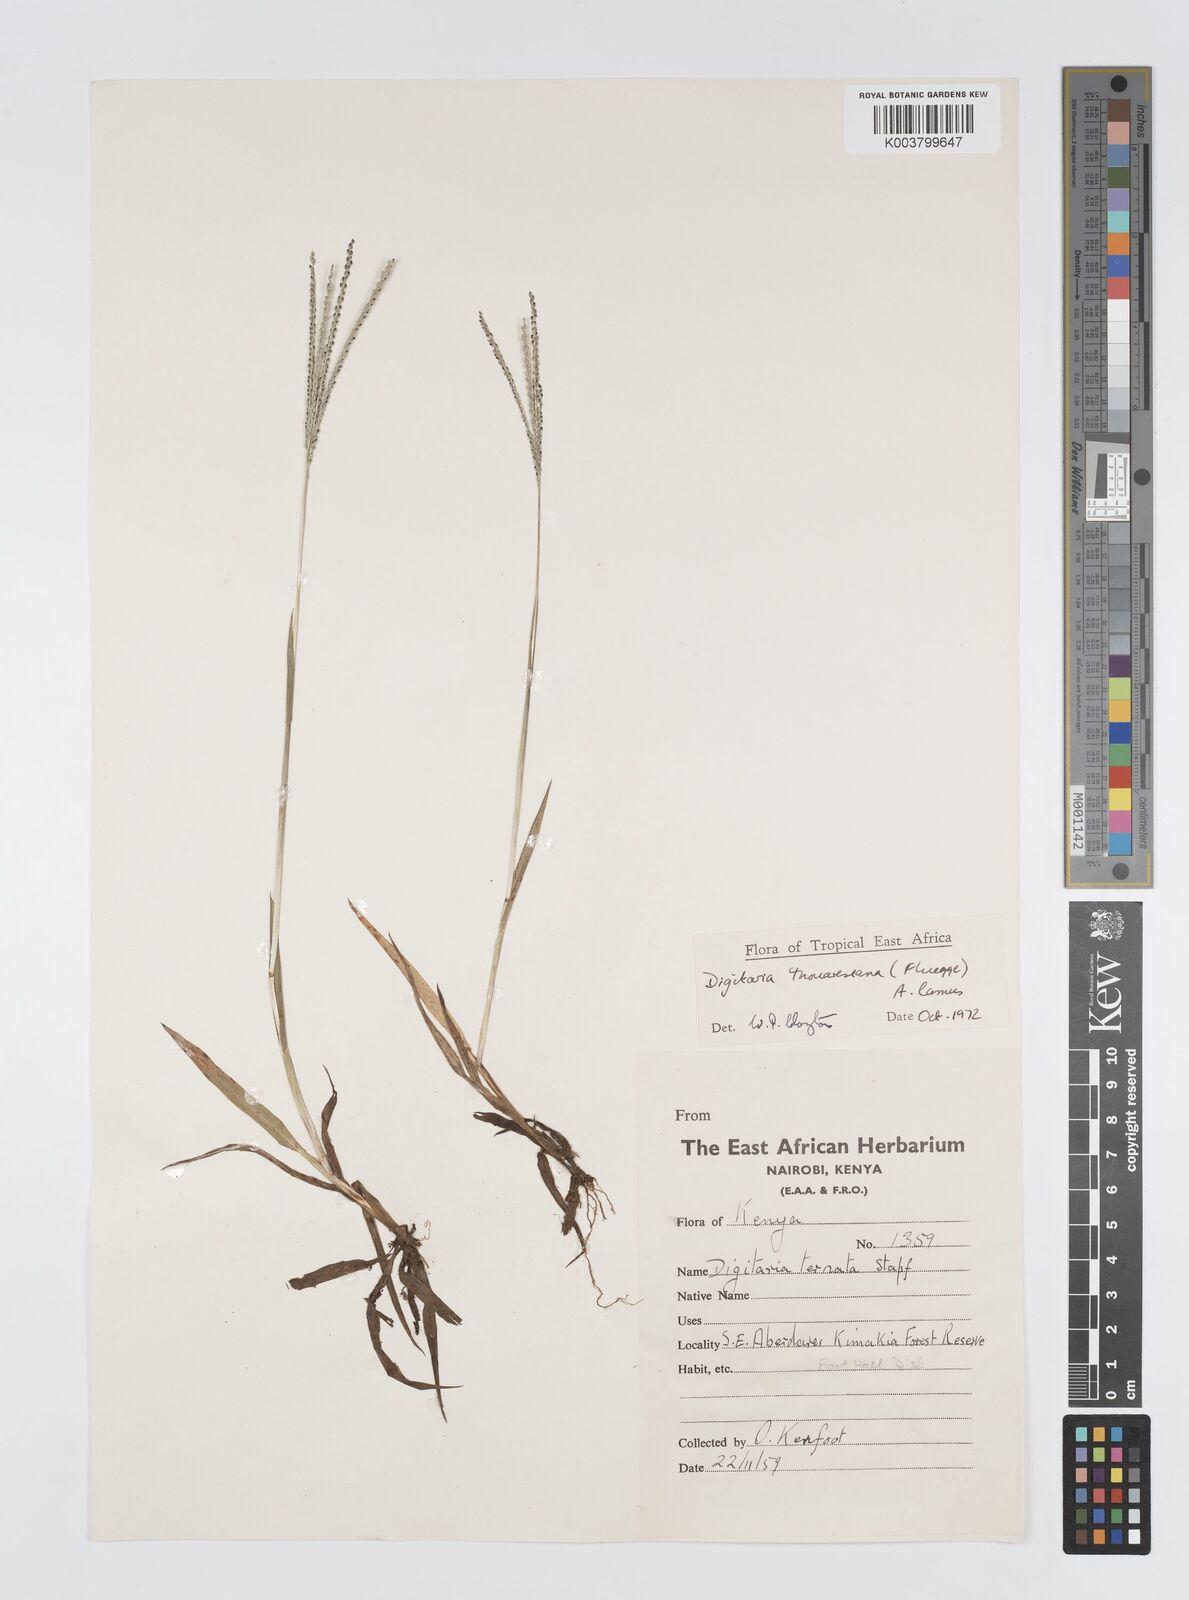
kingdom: Plantae
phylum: Tracheophyta
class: Liliopsida
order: Poales
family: Poaceae
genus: Digitaria
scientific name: Digitaria thouarsiana
